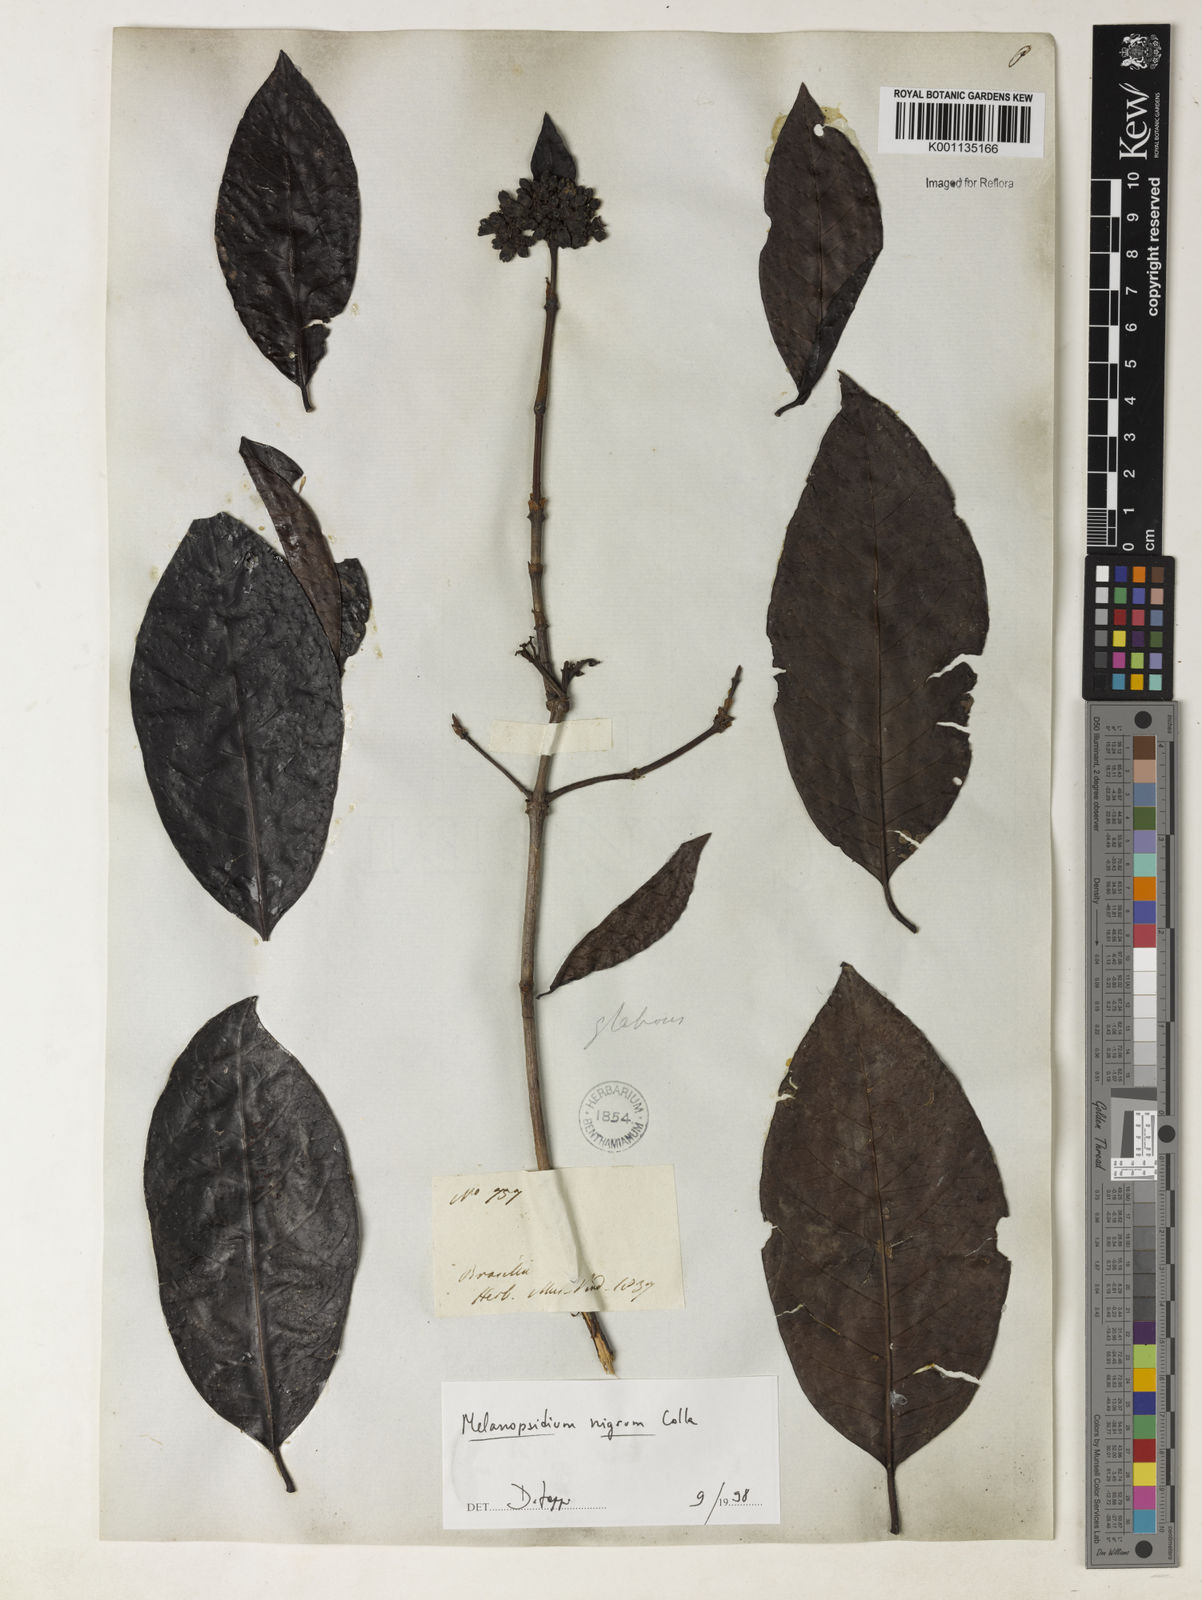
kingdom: Plantae
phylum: Tracheophyta
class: Magnoliopsida
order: Gentianales
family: Rubiaceae
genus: Melanopsidium
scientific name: Melanopsidium nigrum
